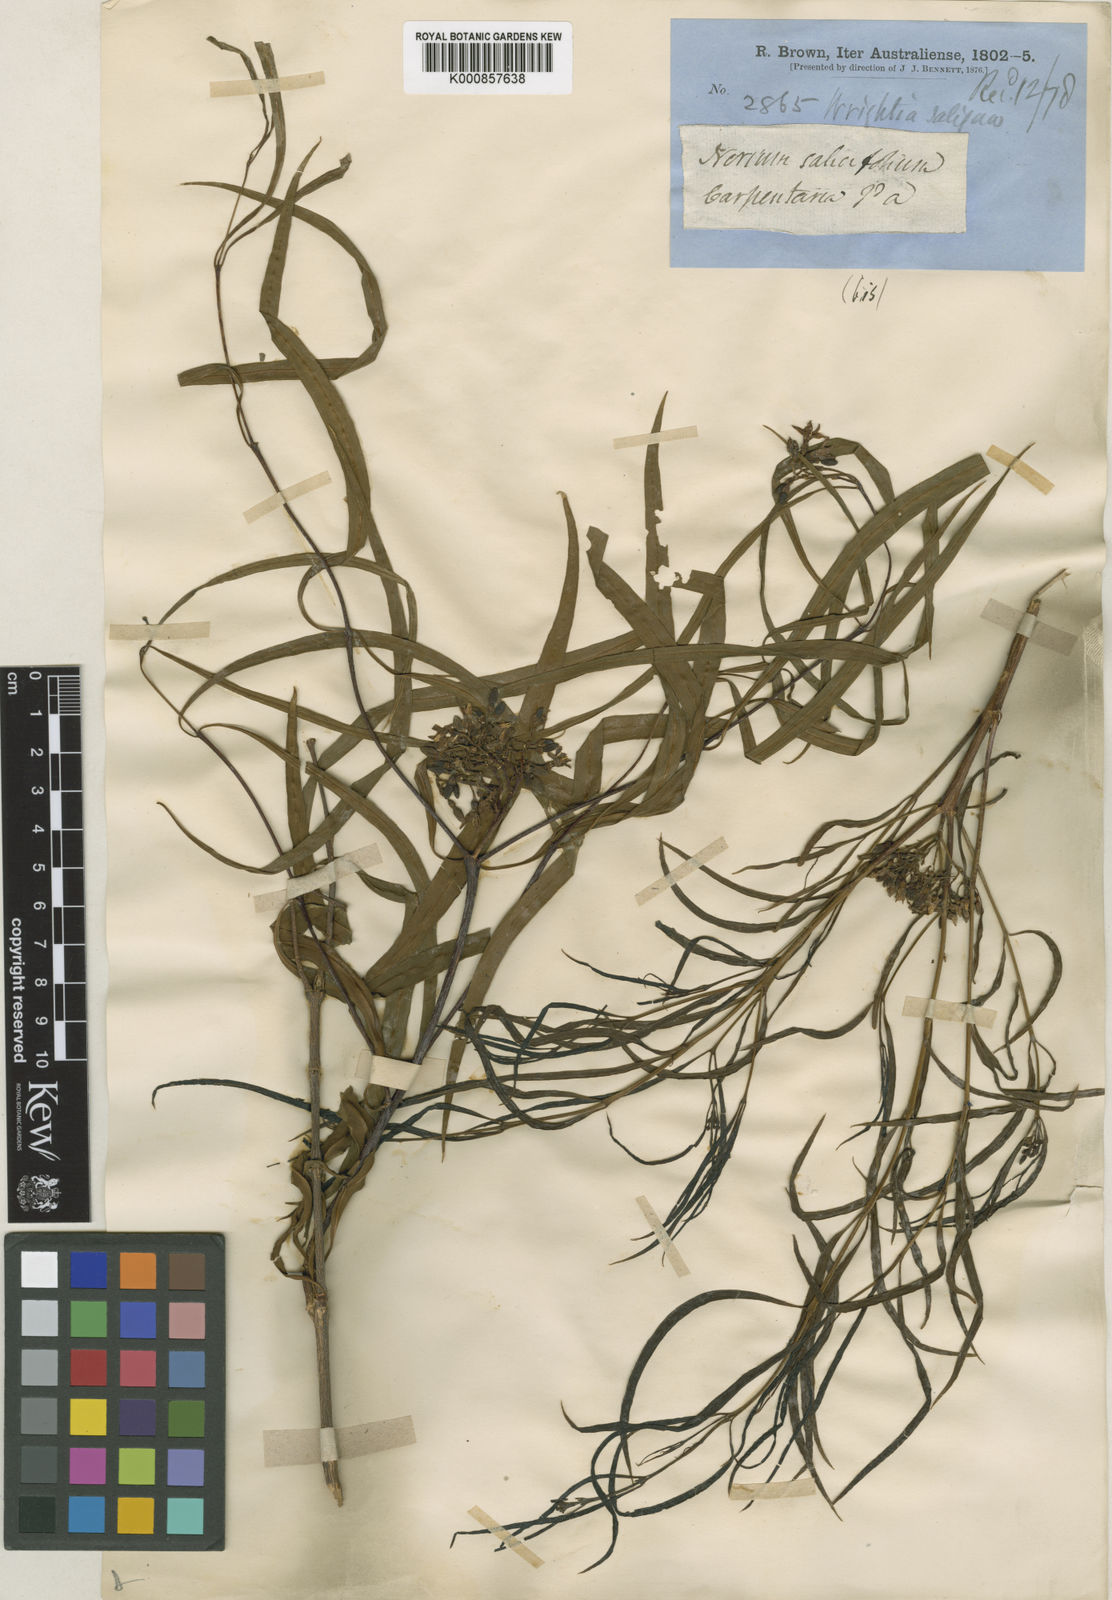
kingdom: Plantae
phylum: Tracheophyta
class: Magnoliopsida
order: Gentianales
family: Apocynaceae
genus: Wrightia
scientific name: Wrightia saligna
